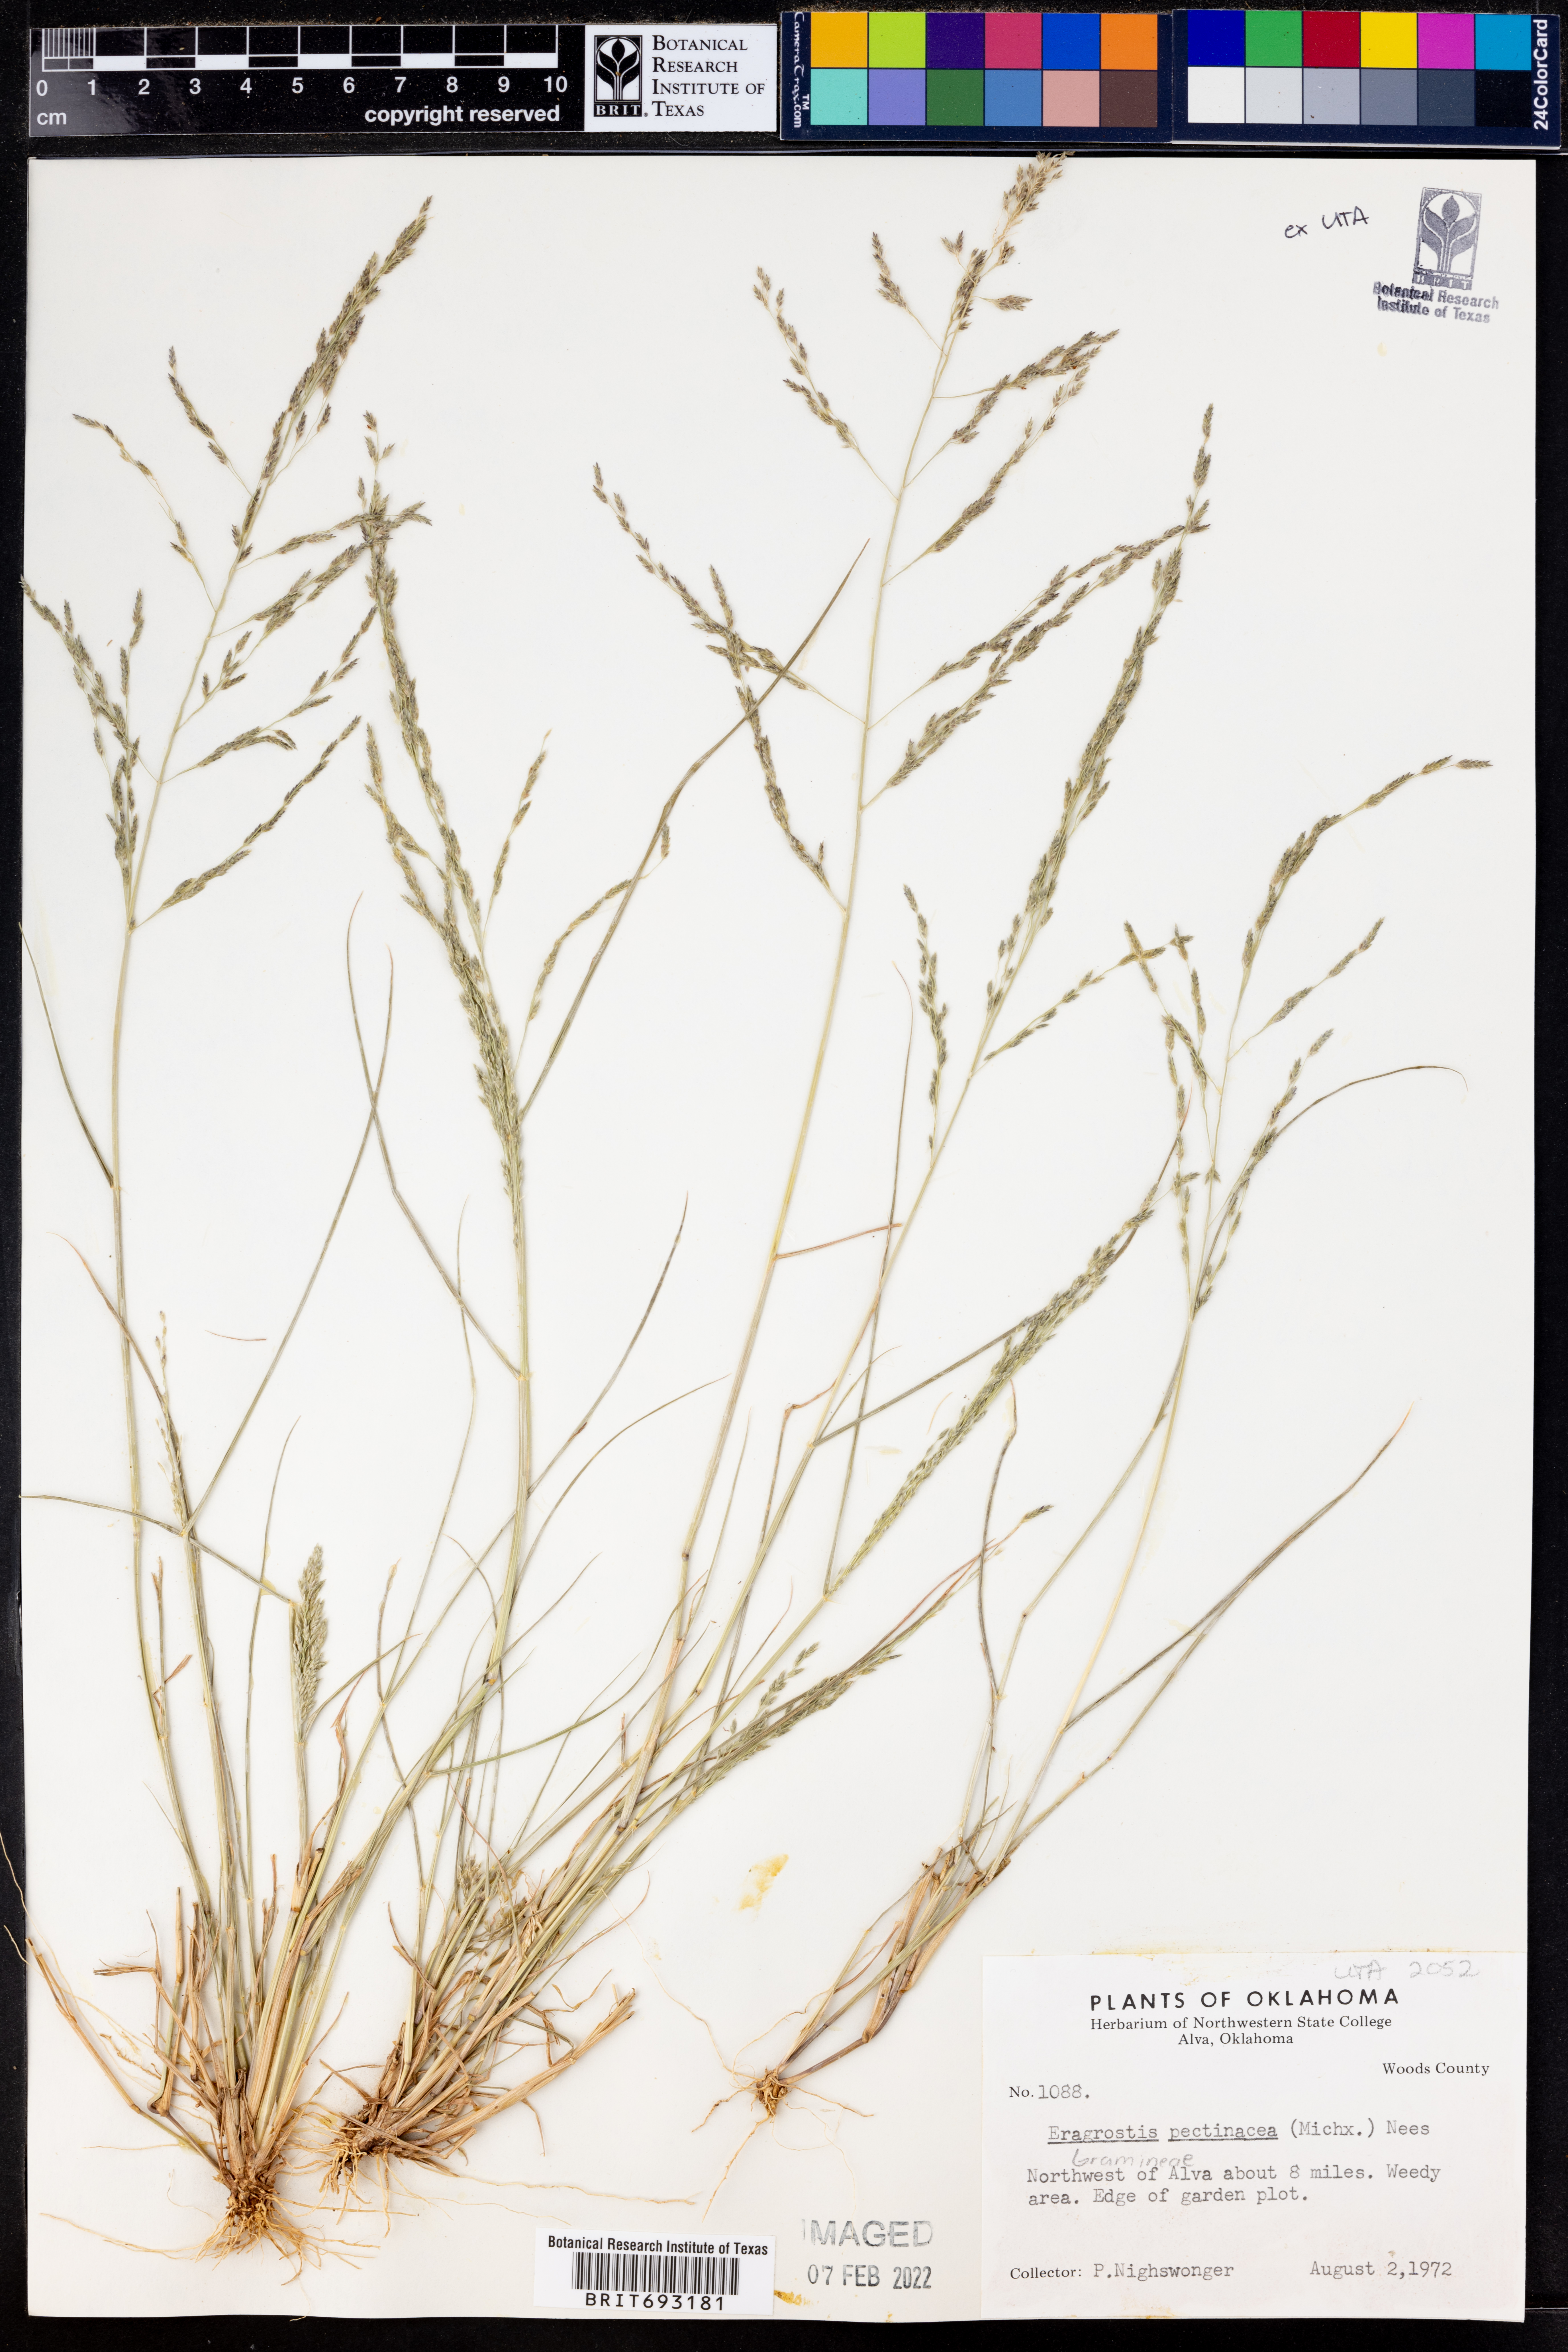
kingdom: Plantae
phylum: Tracheophyta
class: Liliopsida
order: Poales
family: Poaceae
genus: Eragrostis
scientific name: Eragrostis pectinacea
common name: Tufted lovegrass
